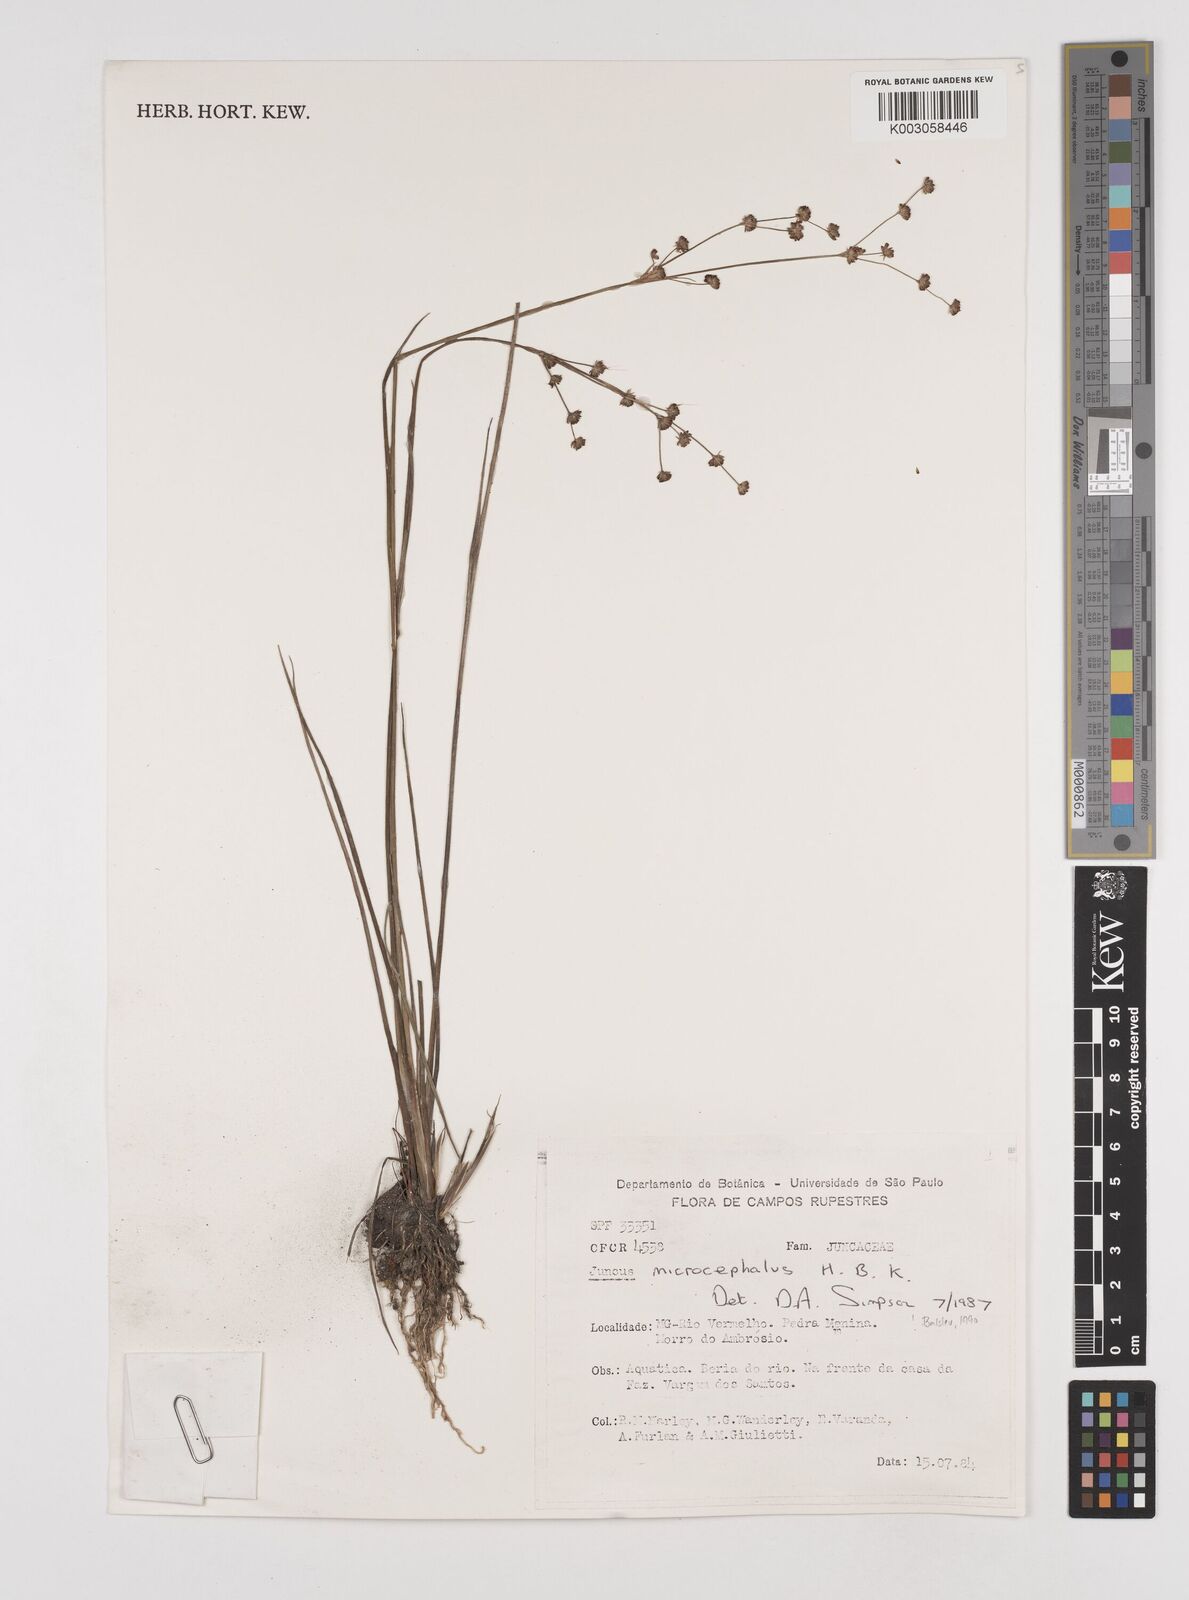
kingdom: Plantae
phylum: Tracheophyta
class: Liliopsida
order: Poales
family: Juncaceae
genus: Juncus
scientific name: Juncus microcephalus
